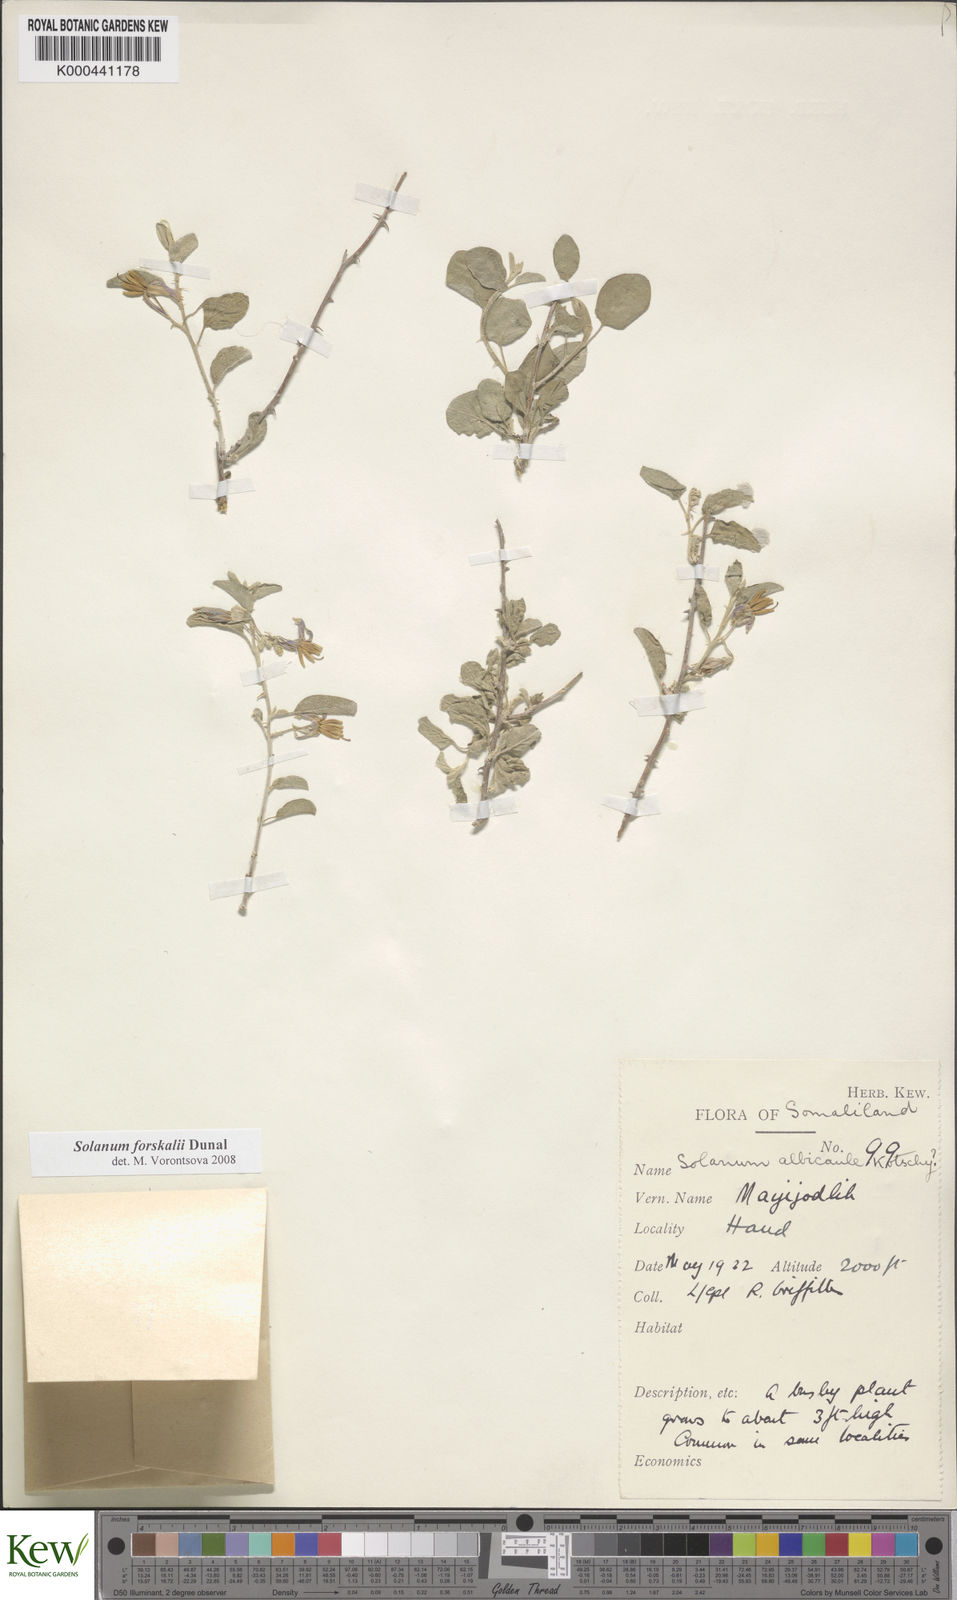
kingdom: Plantae
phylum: Tracheophyta
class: Magnoliopsida
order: Solanales
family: Solanaceae
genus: Solanum
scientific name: Solanum
